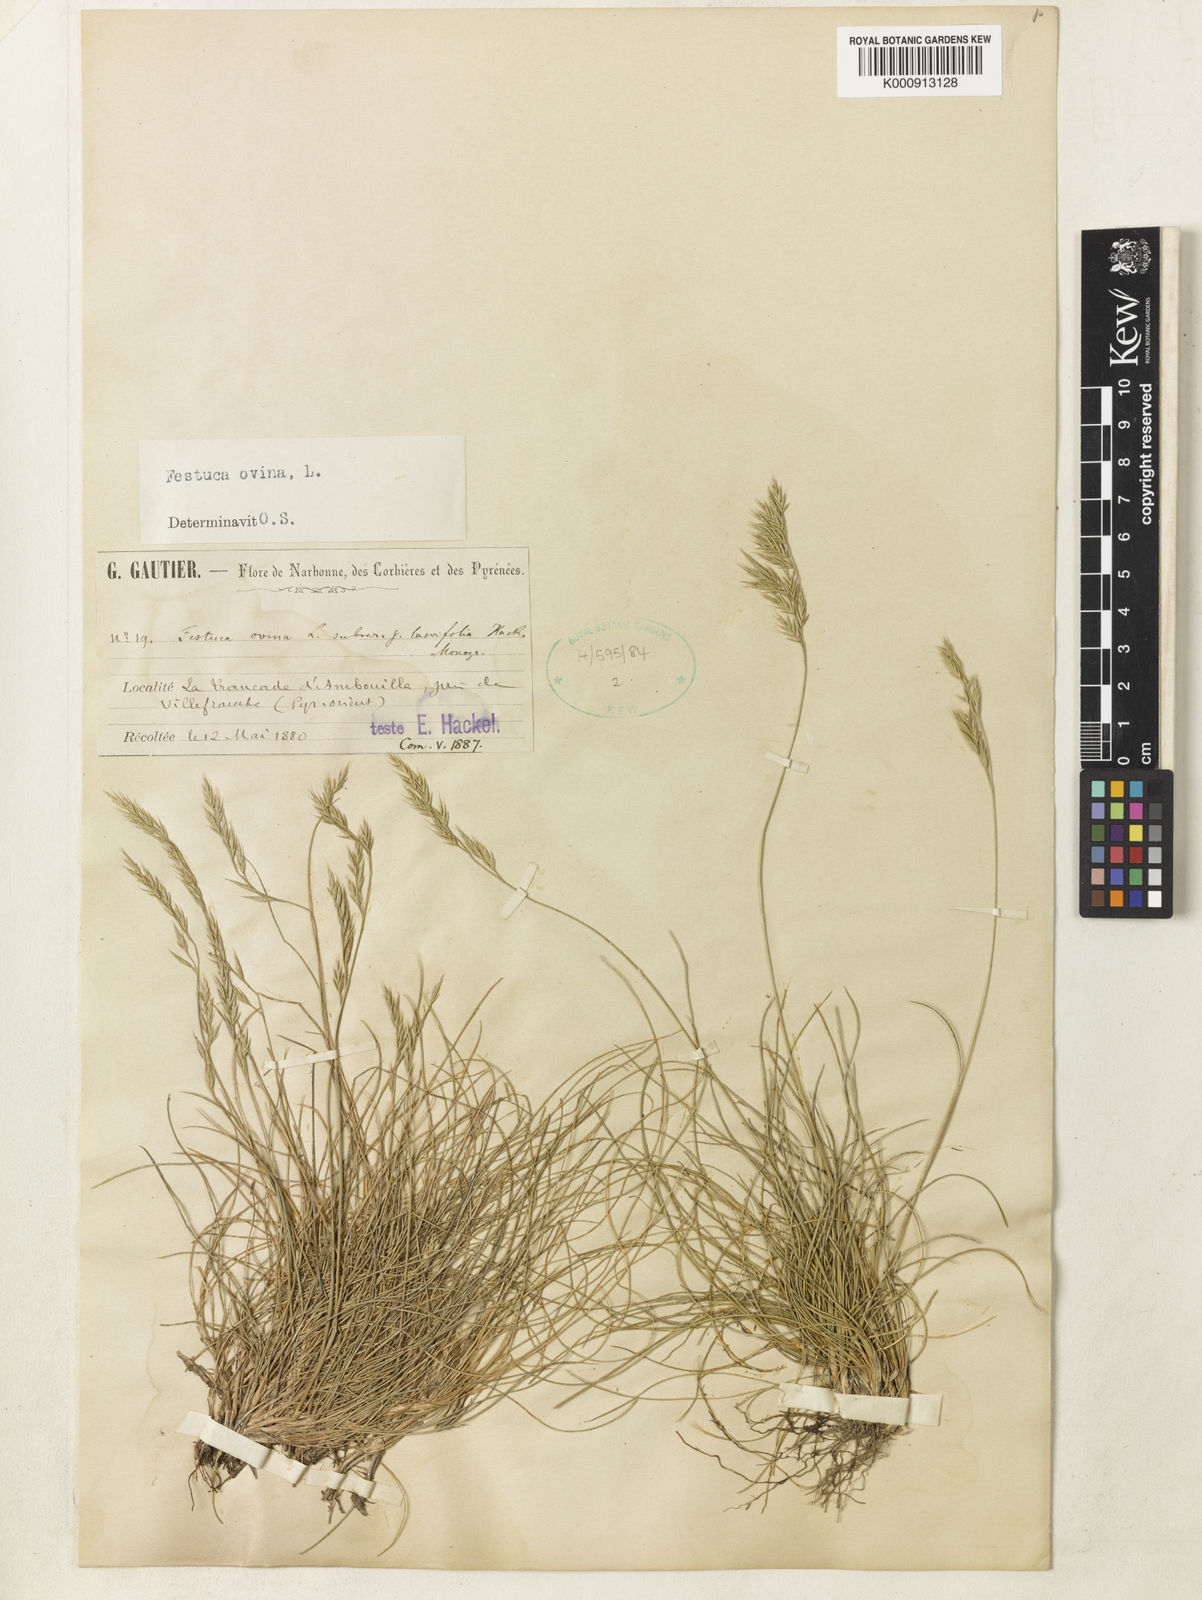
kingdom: Plantae
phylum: Tracheophyta
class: Liliopsida
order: Poales
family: Poaceae
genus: Festuca
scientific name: Festuca ovina
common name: Sheep fescue
